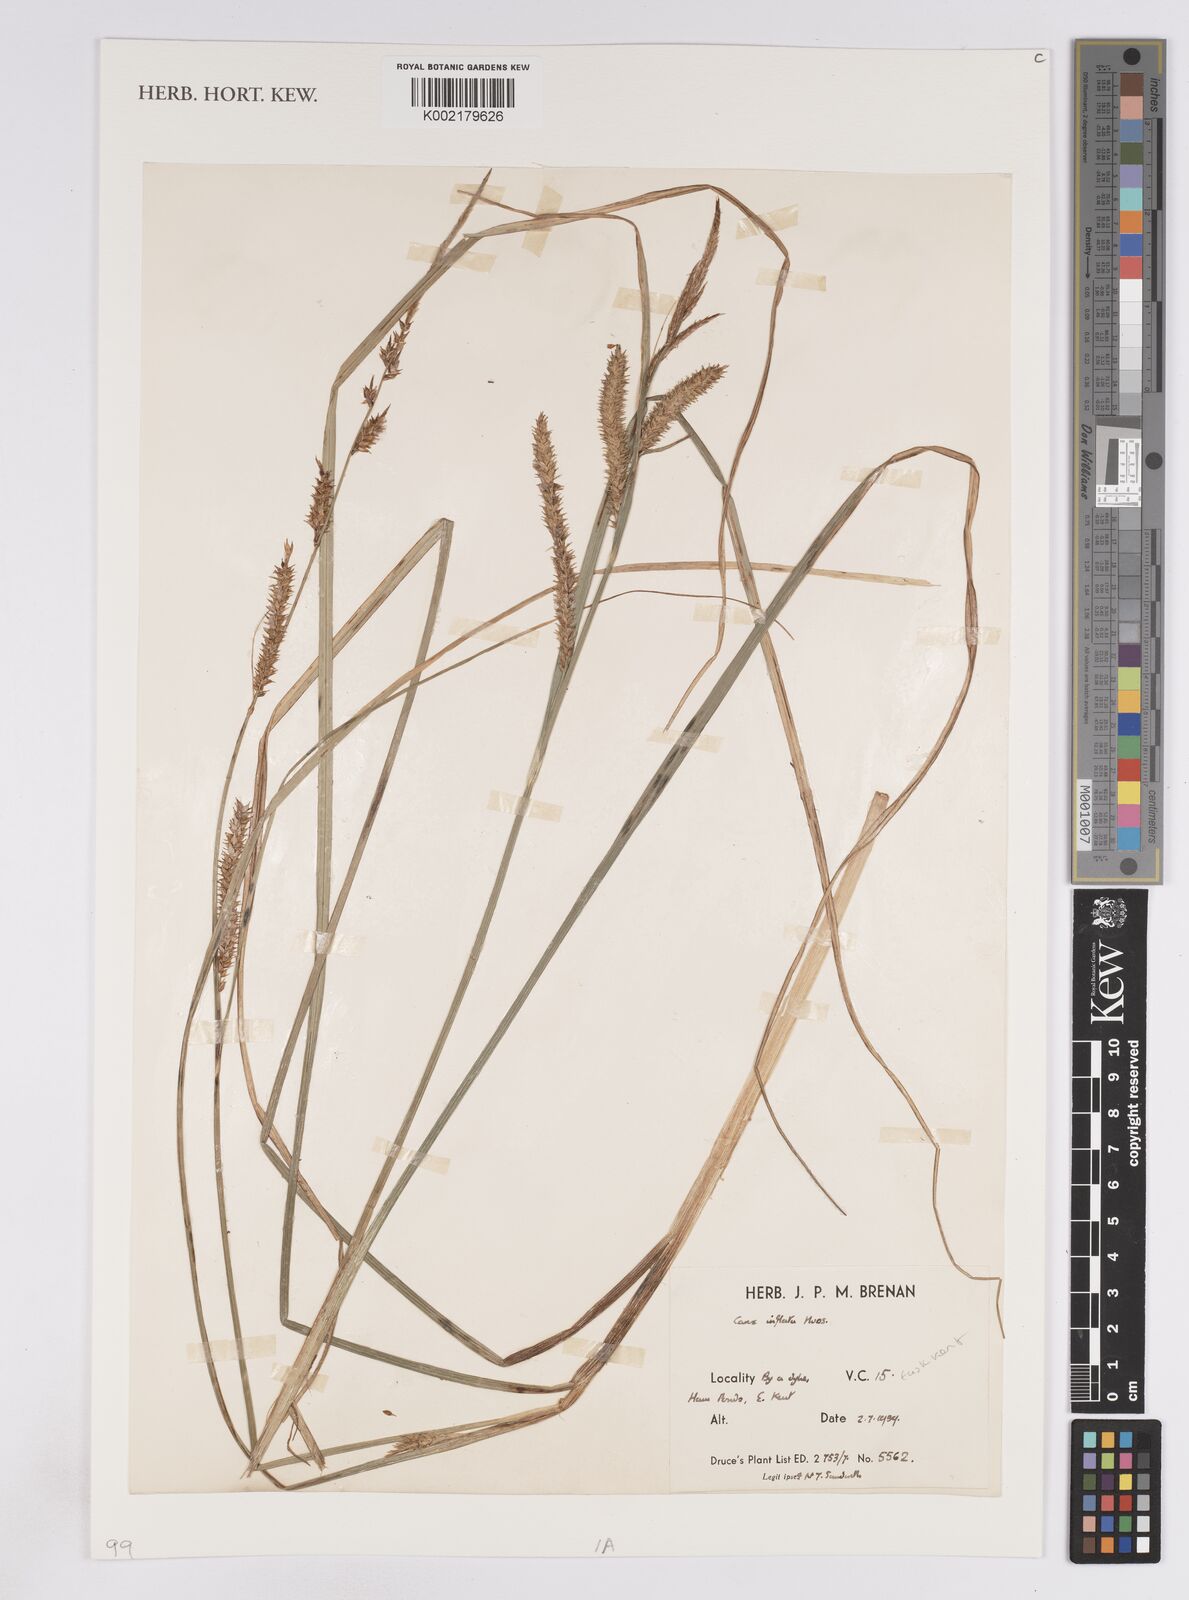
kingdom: Plantae
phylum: Tracheophyta
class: Liliopsida
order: Poales
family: Cyperaceae
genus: Carex
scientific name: Carex rostrata
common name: Bottle sedge
